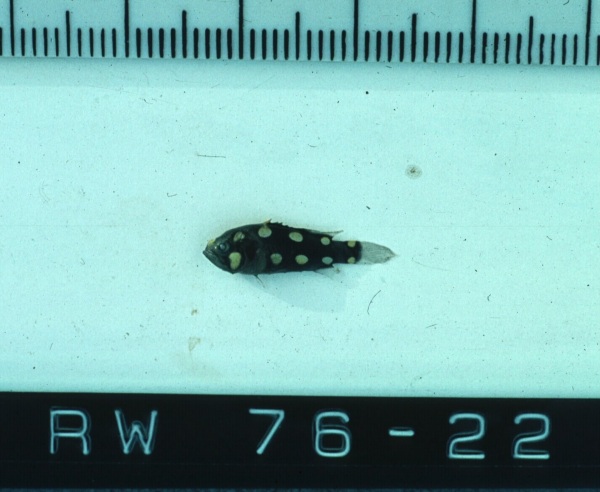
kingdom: Animalia
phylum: Chordata
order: Perciformes
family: Serranidae
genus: Grammistes
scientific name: Grammistes sexlineatus
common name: Sixline soapfish
